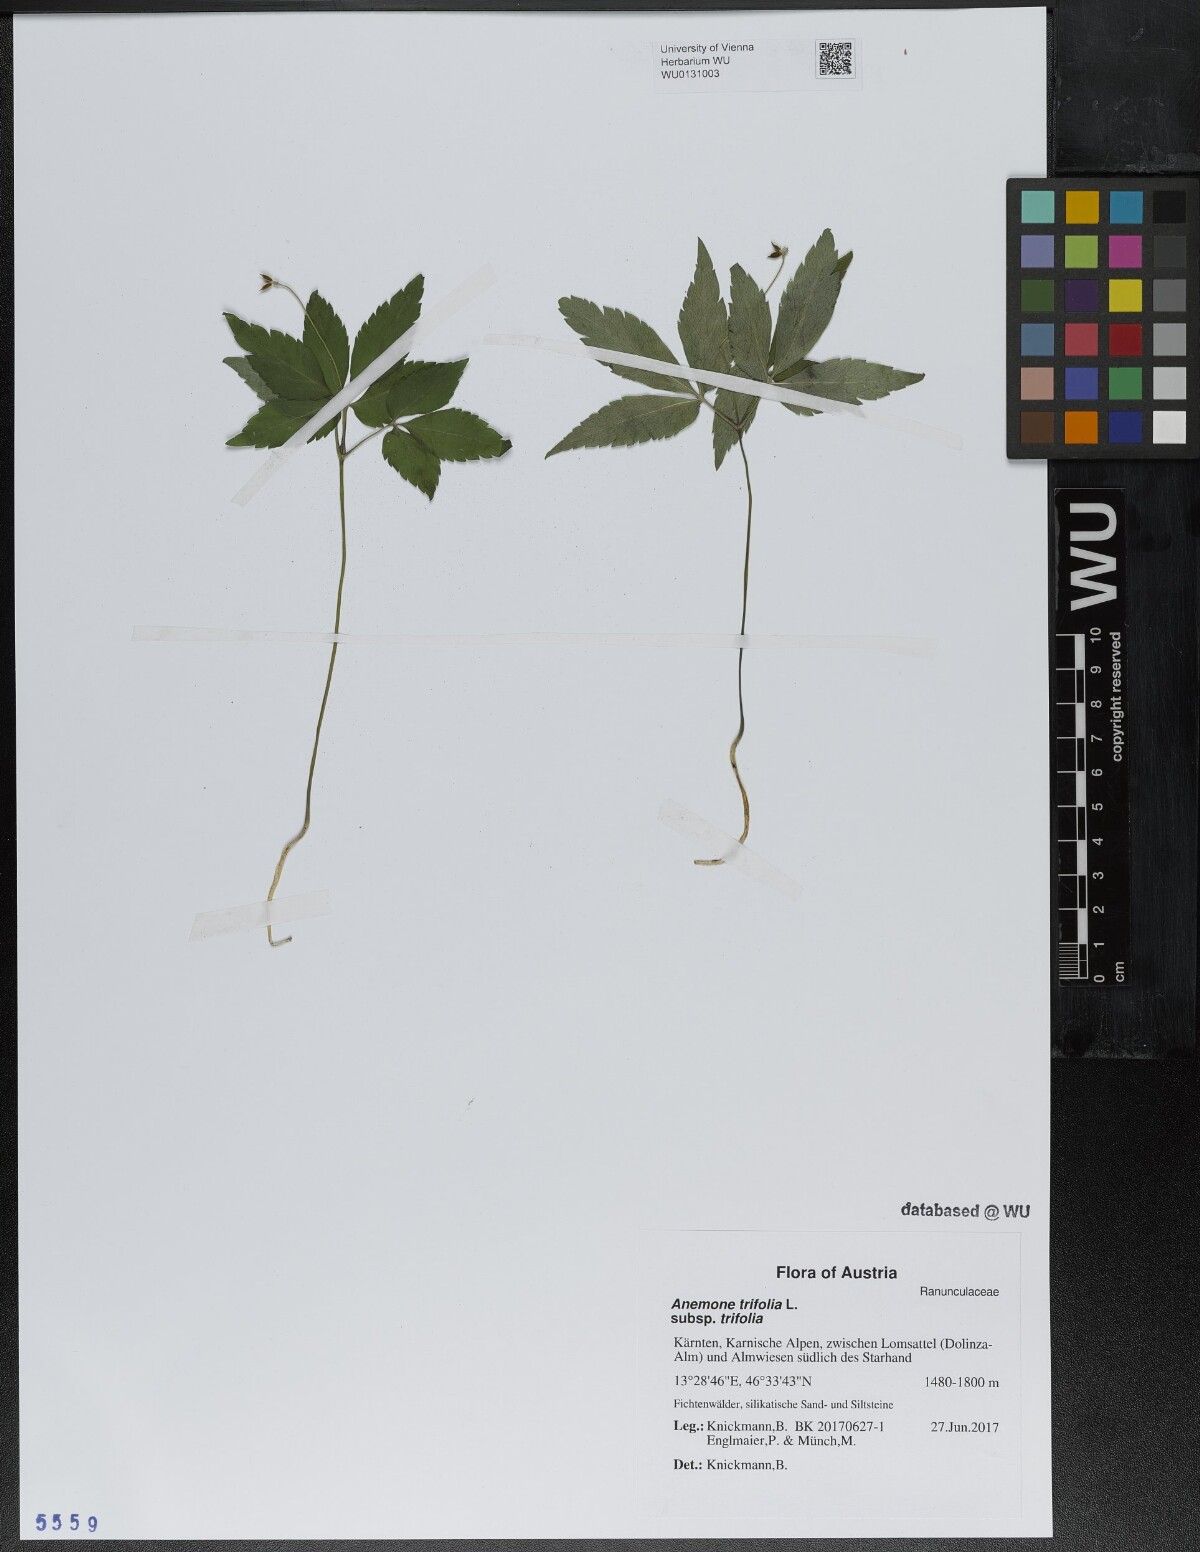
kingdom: Plantae
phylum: Tracheophyta
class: Magnoliopsida
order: Ranunculales
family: Ranunculaceae
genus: Anemone
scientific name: Anemone trifolia
